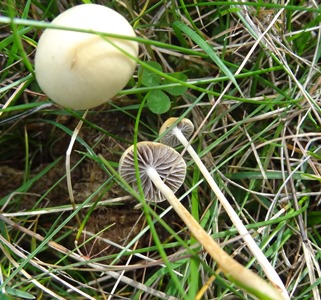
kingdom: Fungi
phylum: Basidiomycota
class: Agaricomycetes
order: Agaricales
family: Strophariaceae
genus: Protostropharia
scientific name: Protostropharia semiglobata
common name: halvkugleformet bredblad
